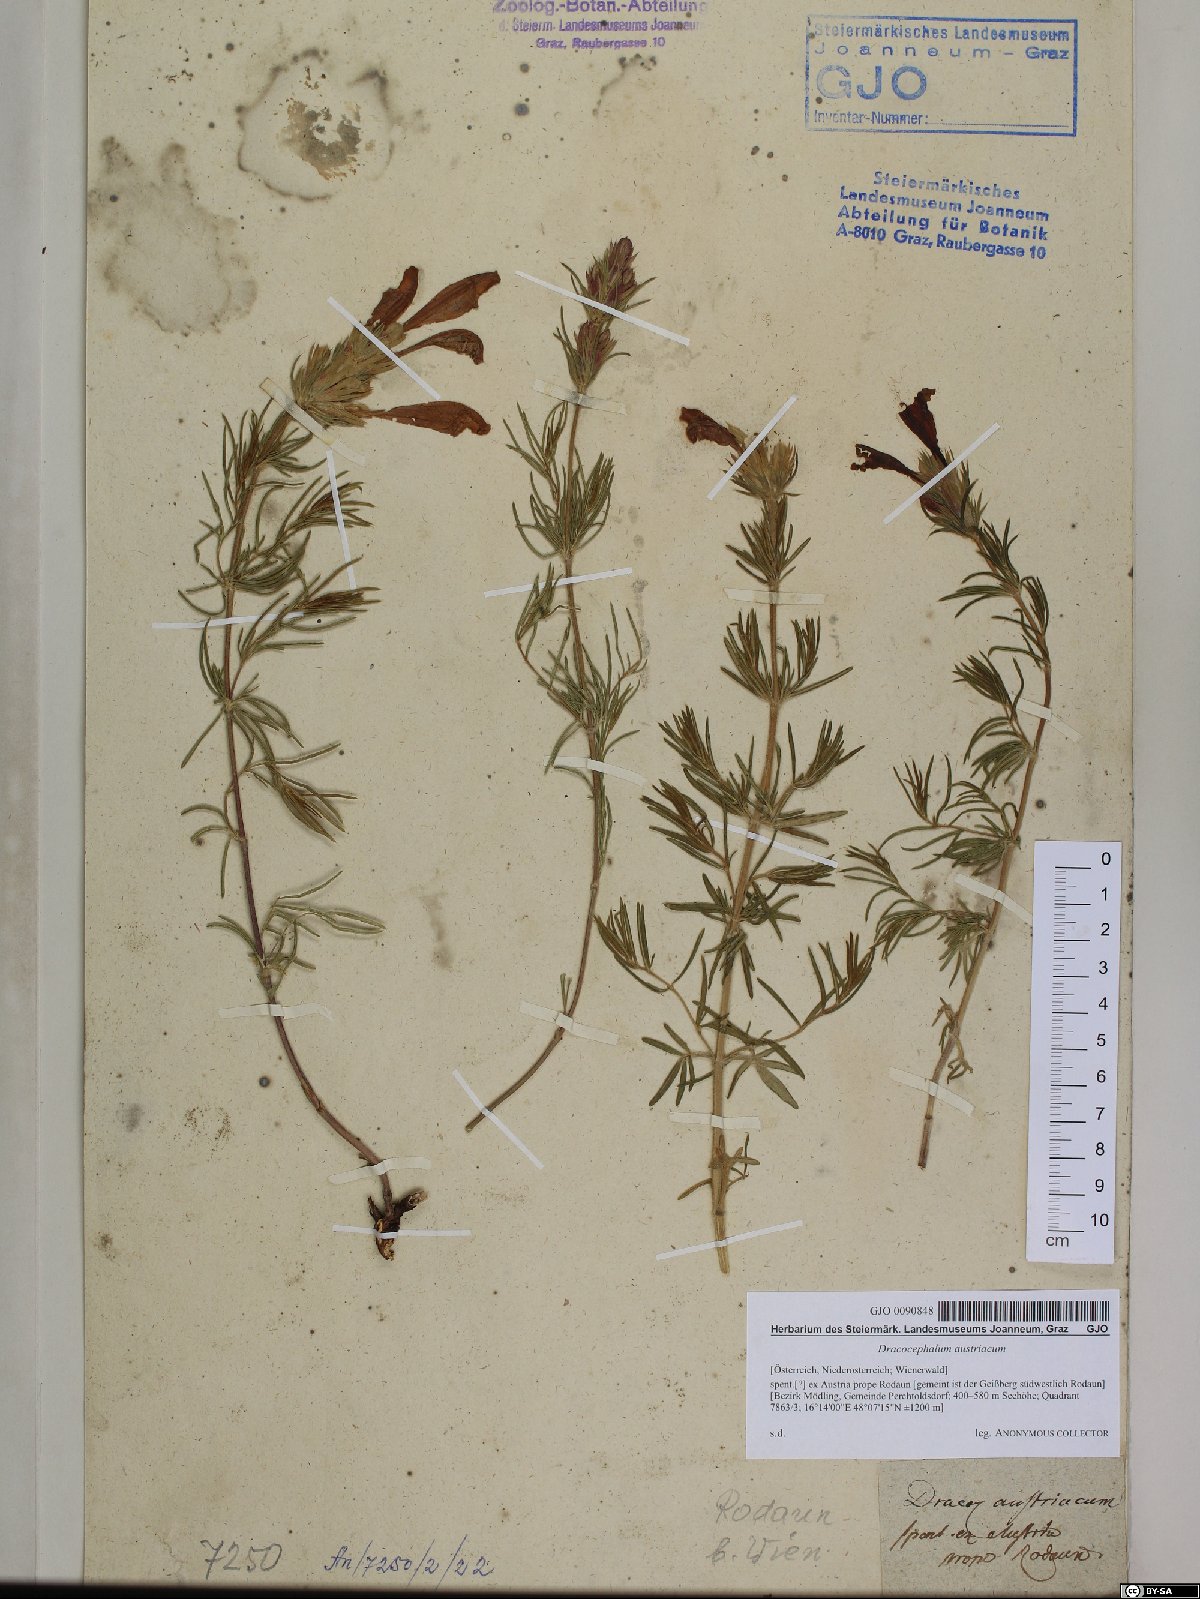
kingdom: Plantae
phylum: Tracheophyta
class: Magnoliopsida
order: Lamiales
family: Lamiaceae
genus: Dracocephalum
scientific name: Dracocephalum austriacum
